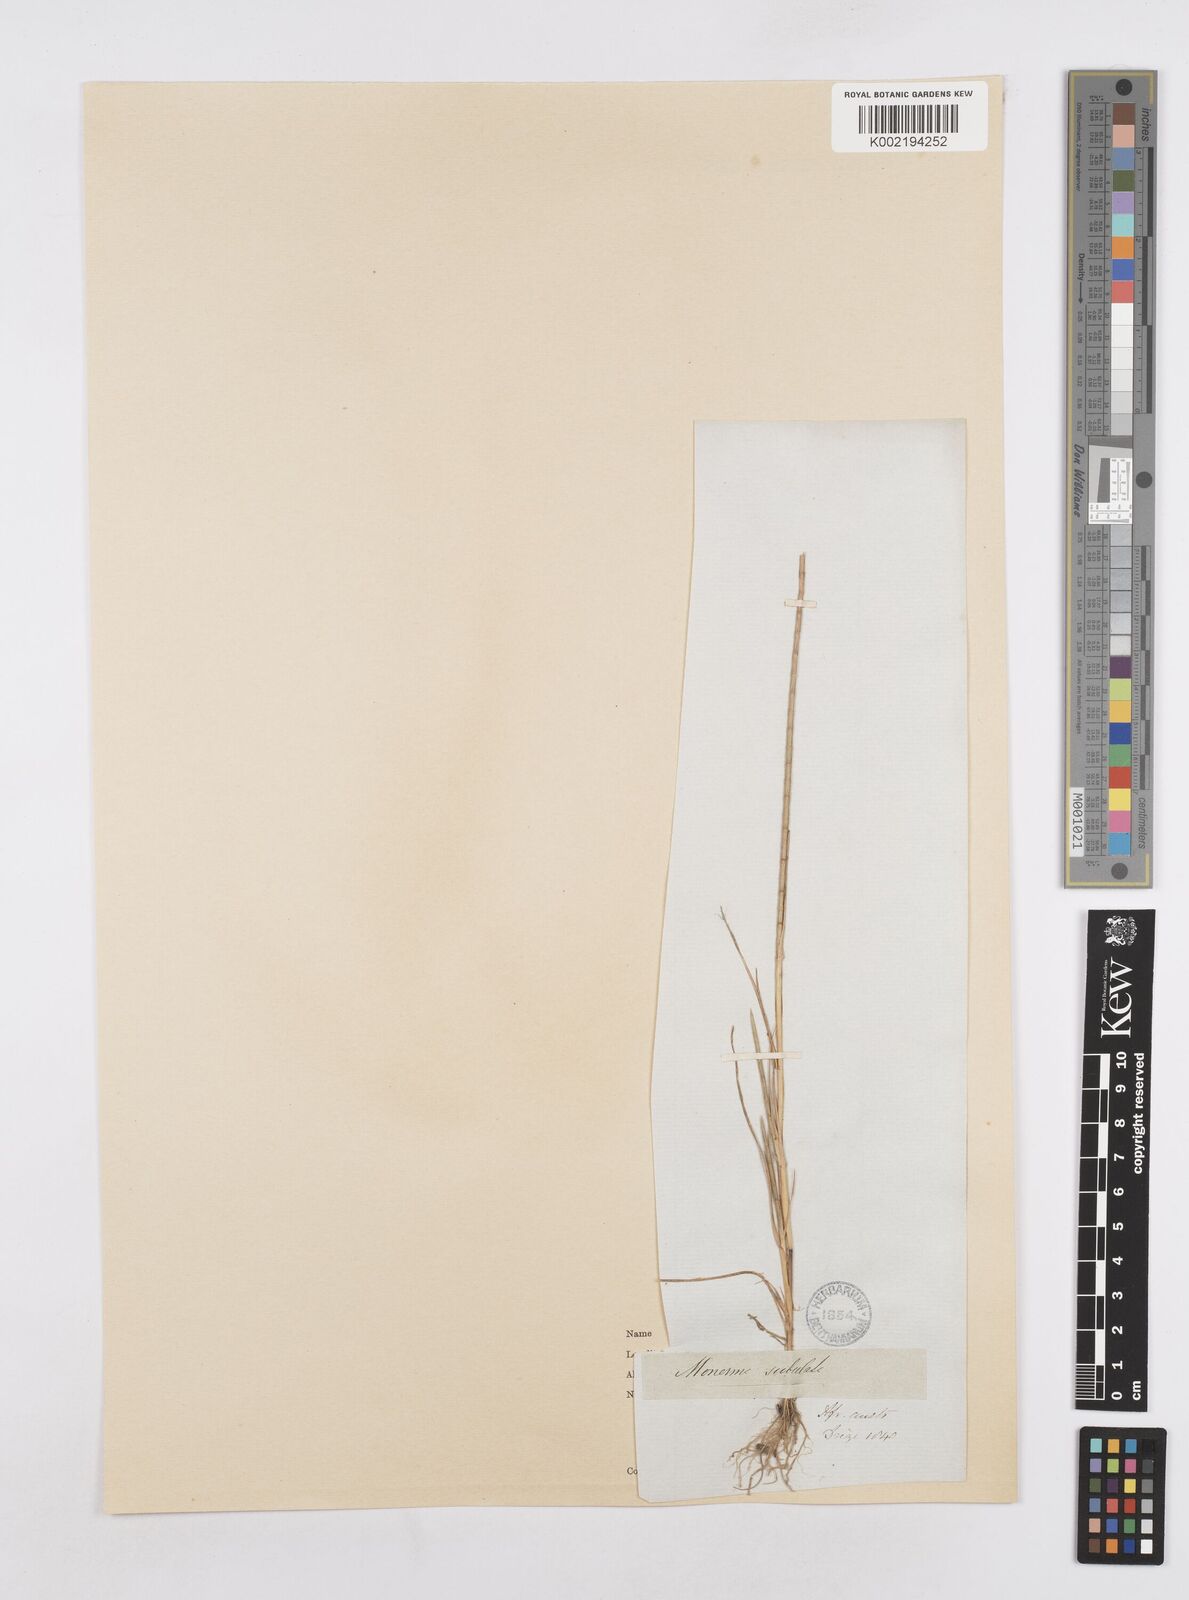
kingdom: Plantae
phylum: Tracheophyta
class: Liliopsida
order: Poales
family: Poaceae
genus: Parapholis
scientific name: Parapholis cylindrica
